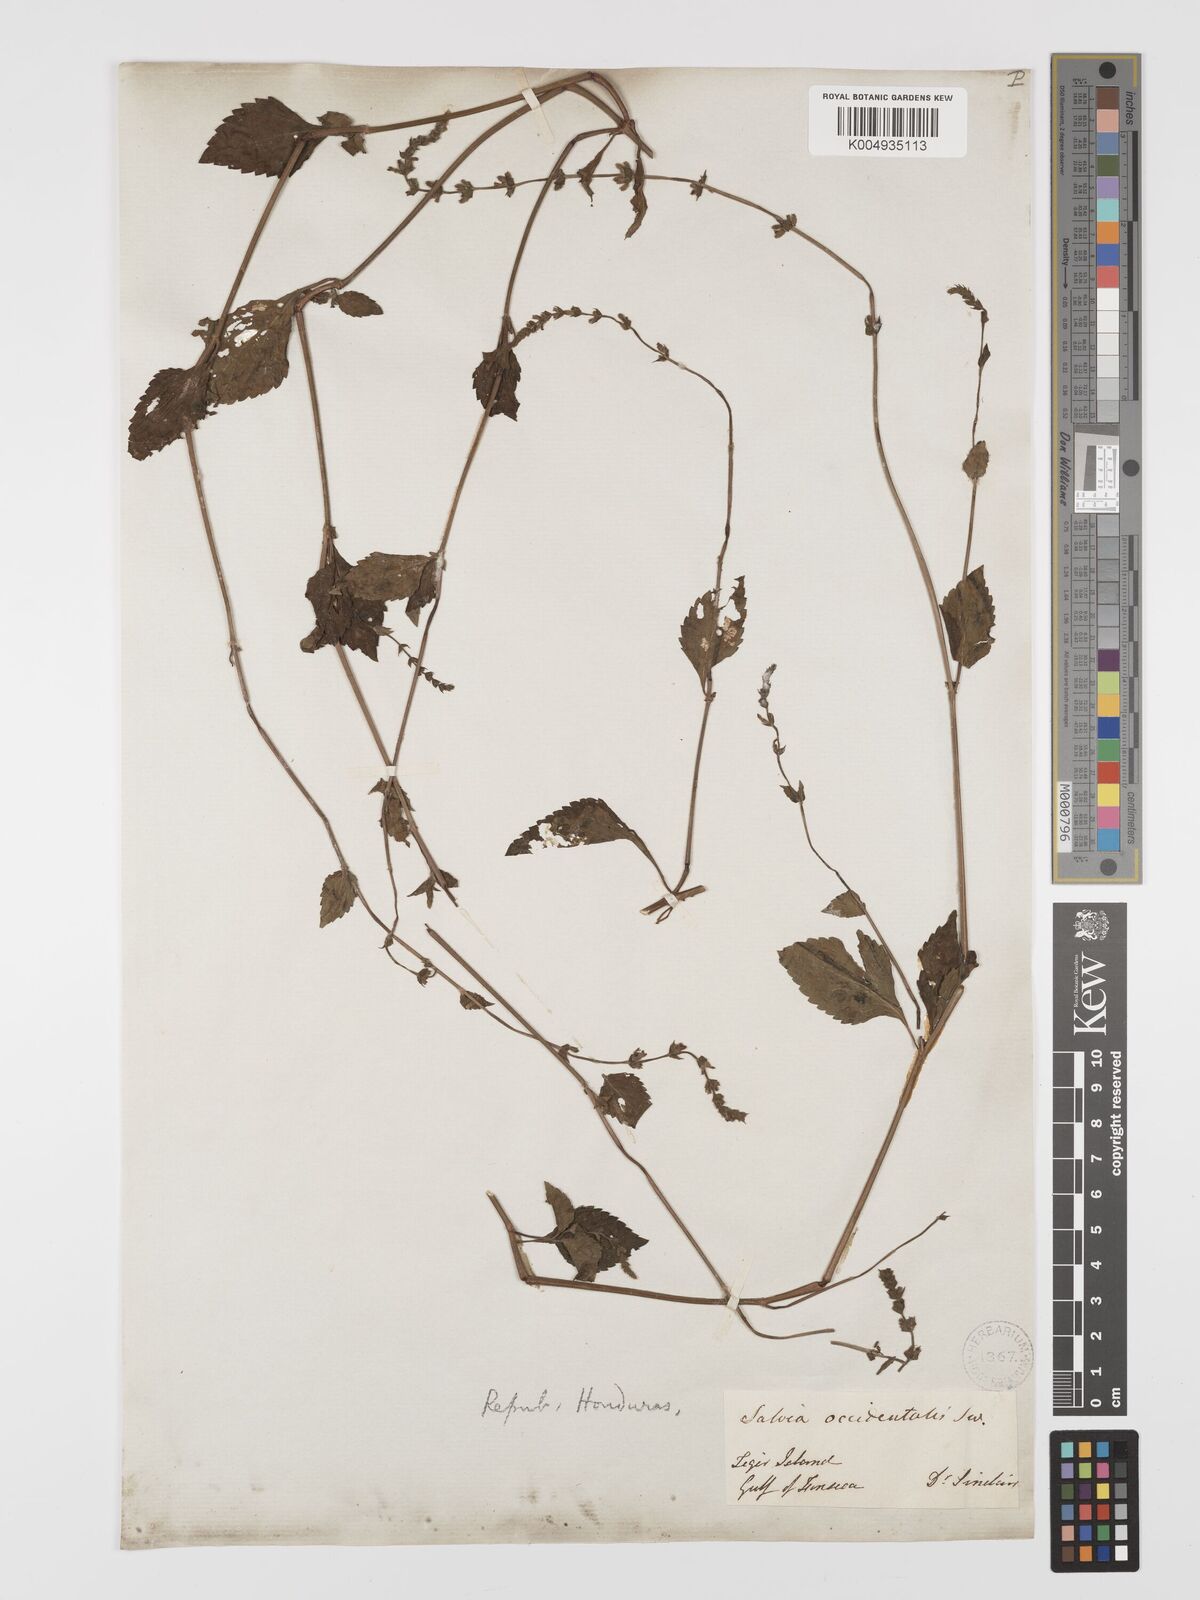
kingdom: Plantae
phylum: Tracheophyta
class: Magnoliopsida
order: Lamiales
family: Lamiaceae
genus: Salvia
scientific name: Salvia occidentalis
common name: West indian sage
